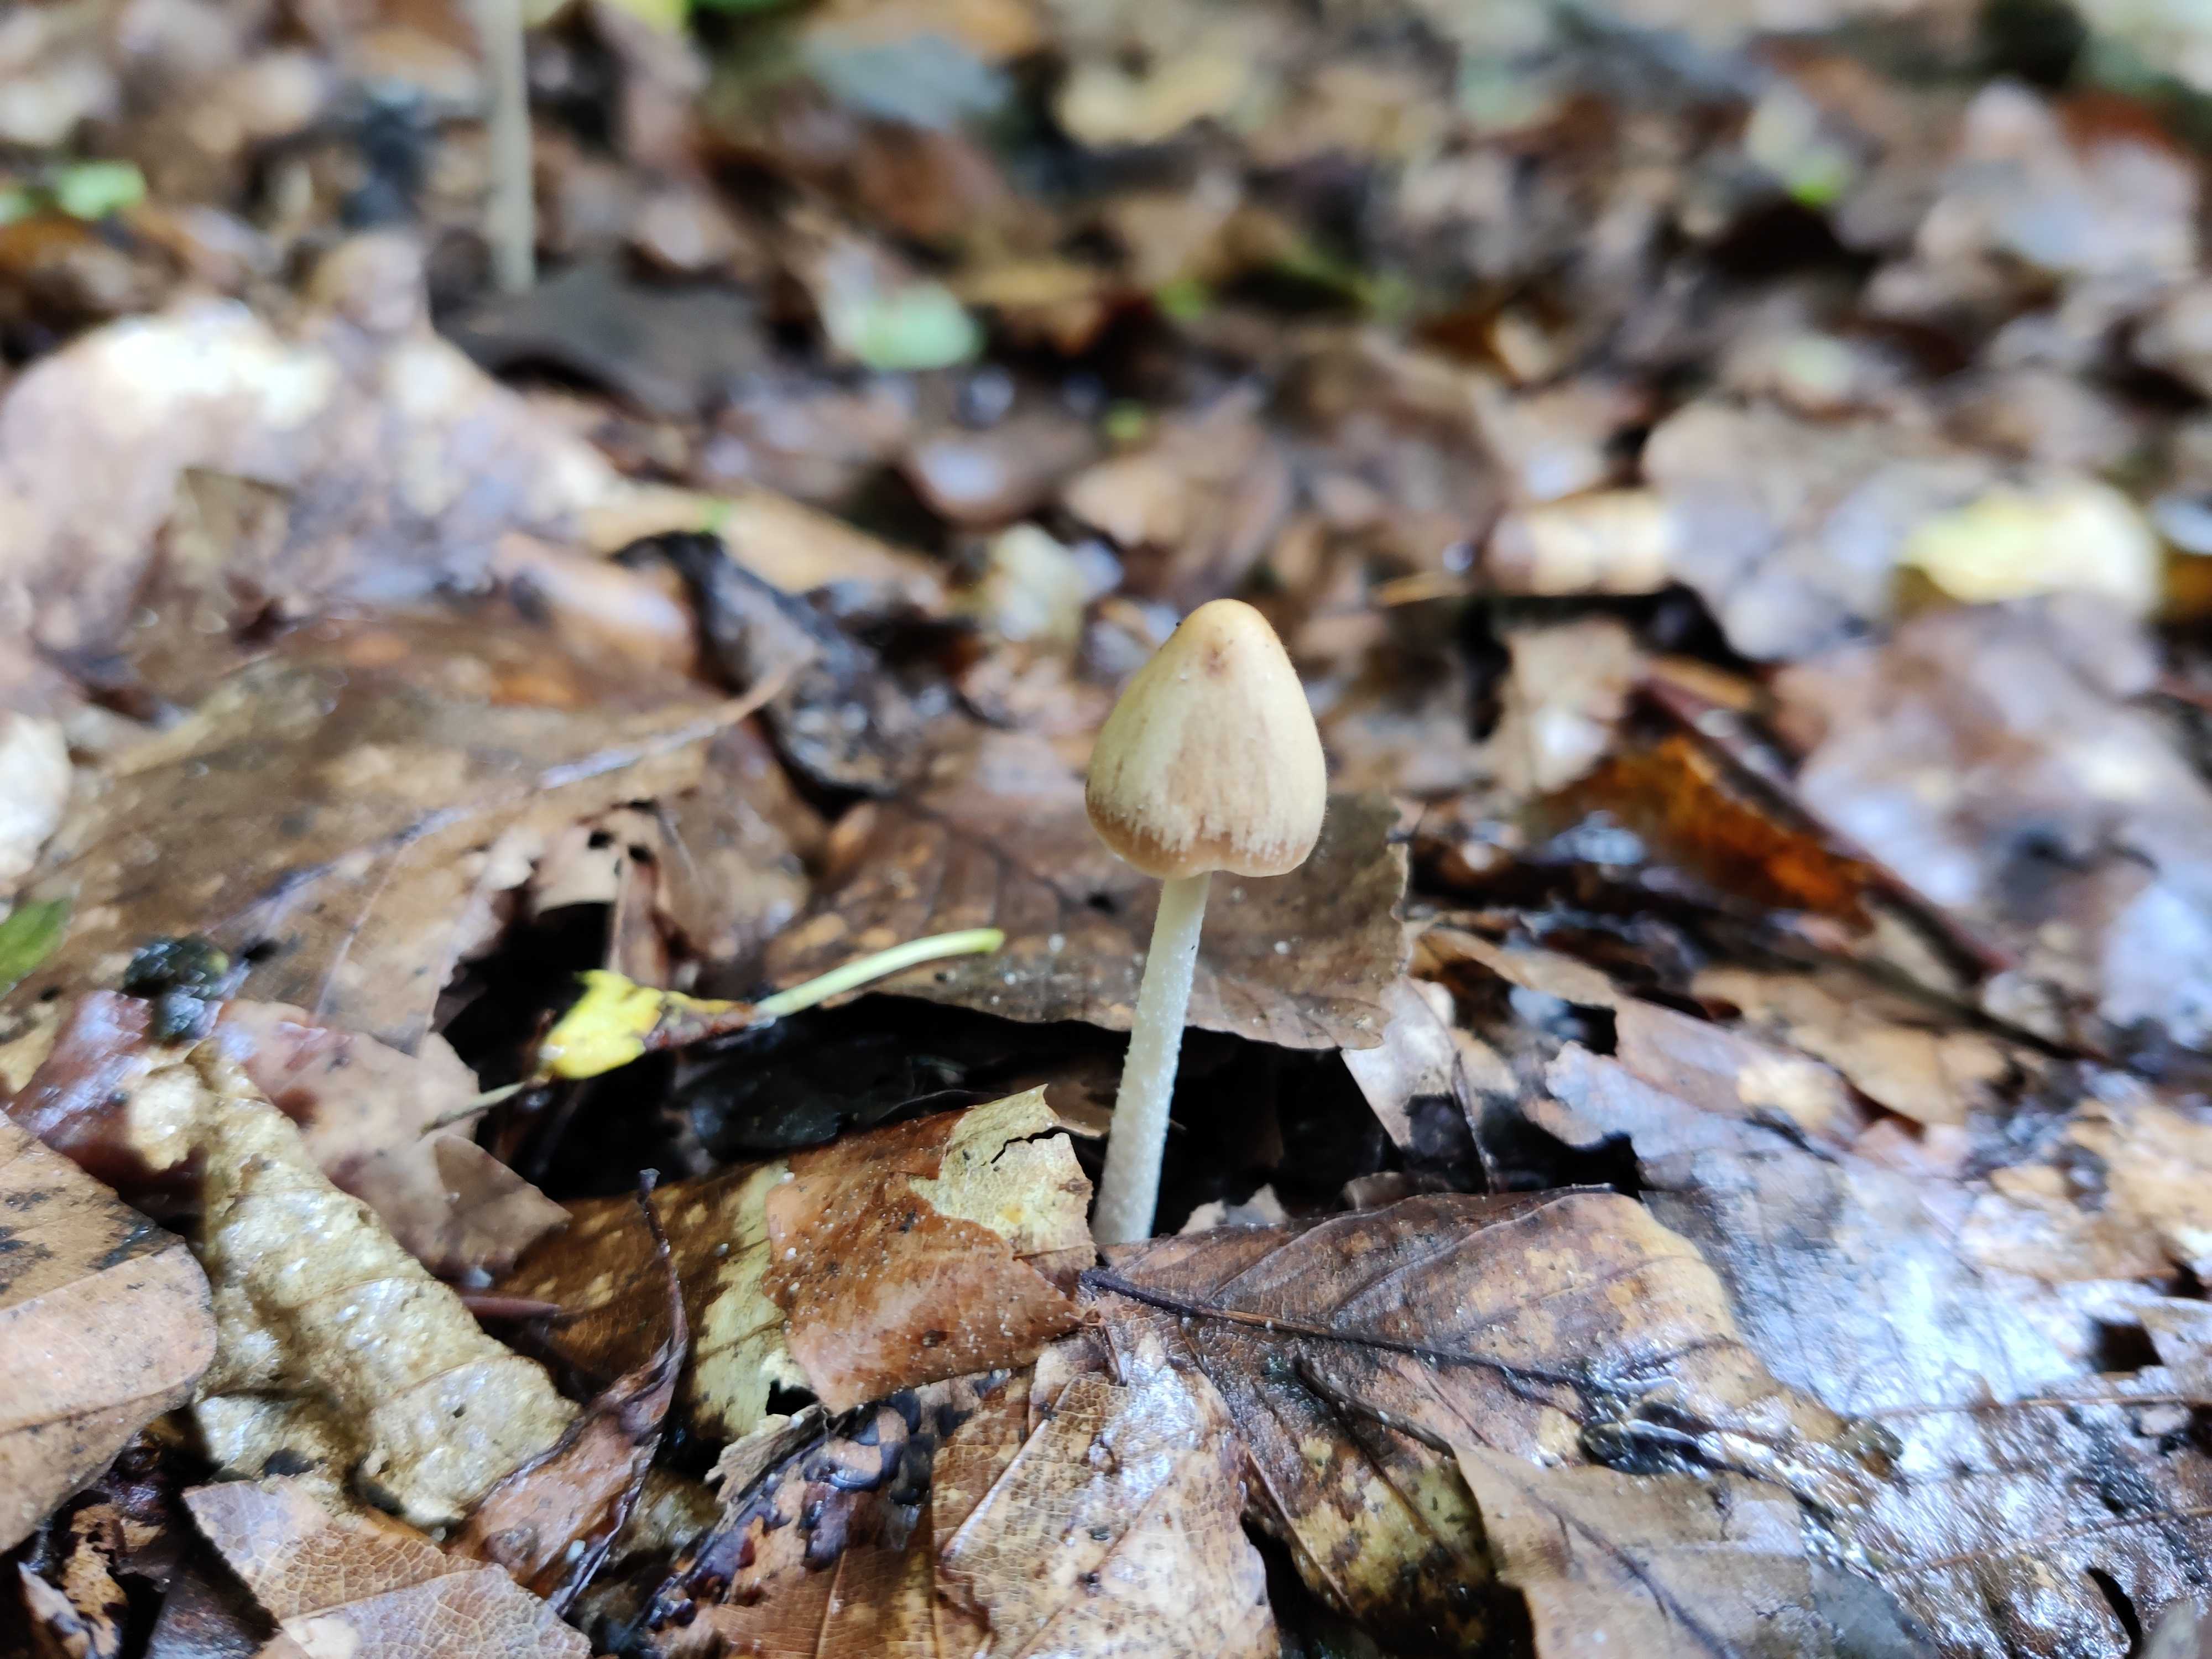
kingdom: Fungi
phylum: Basidiomycota
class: Agaricomycetes
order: Agaricales
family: Psathyrellaceae
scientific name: Psathyrellaceae
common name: mørkhatfamilien
